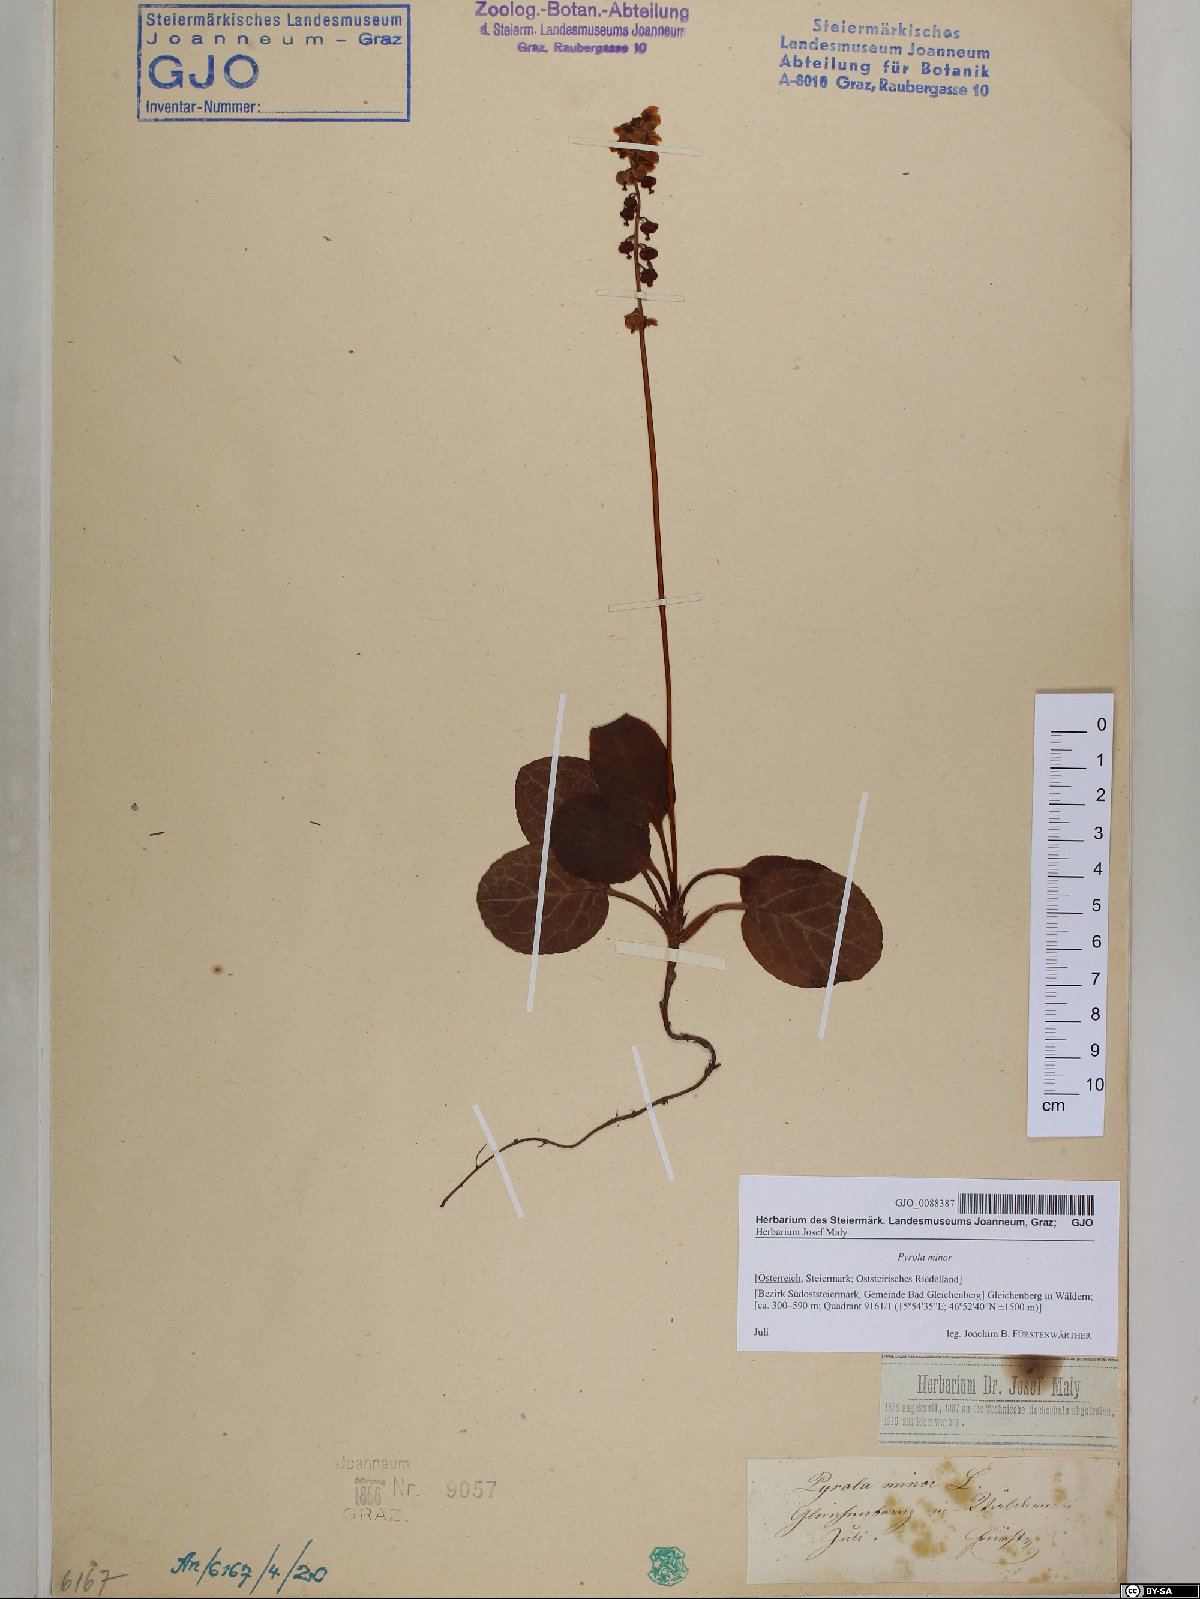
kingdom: Plantae
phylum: Tracheophyta
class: Magnoliopsida
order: Ericales
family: Ericaceae
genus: Pyrola
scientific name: Pyrola minor
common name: Common wintergreen
